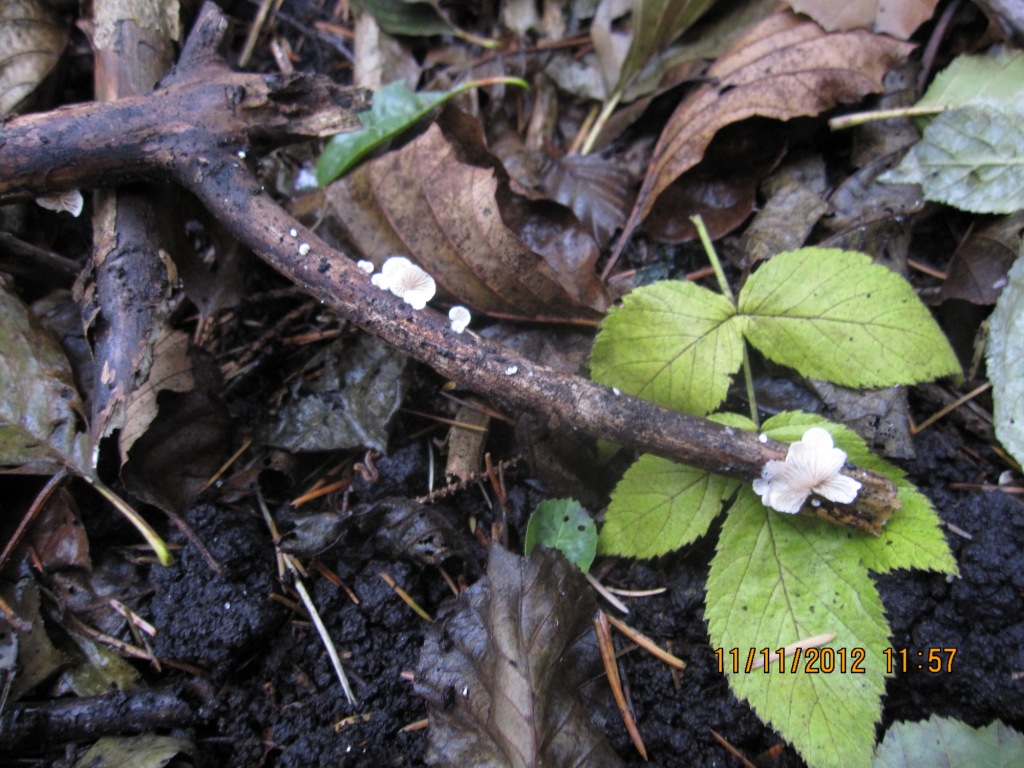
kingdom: Fungi
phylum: Basidiomycota
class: Agaricomycetes
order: Agaricales
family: Crepidotaceae
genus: Crepidotus
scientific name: Crepidotus cesatii
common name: almindelig muslingesvamp
